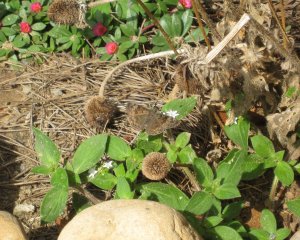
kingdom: Animalia
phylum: Arthropoda
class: Insecta
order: Lepidoptera
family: Hesperiidae
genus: Gesta
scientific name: Gesta
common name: Horace's Duskywing
